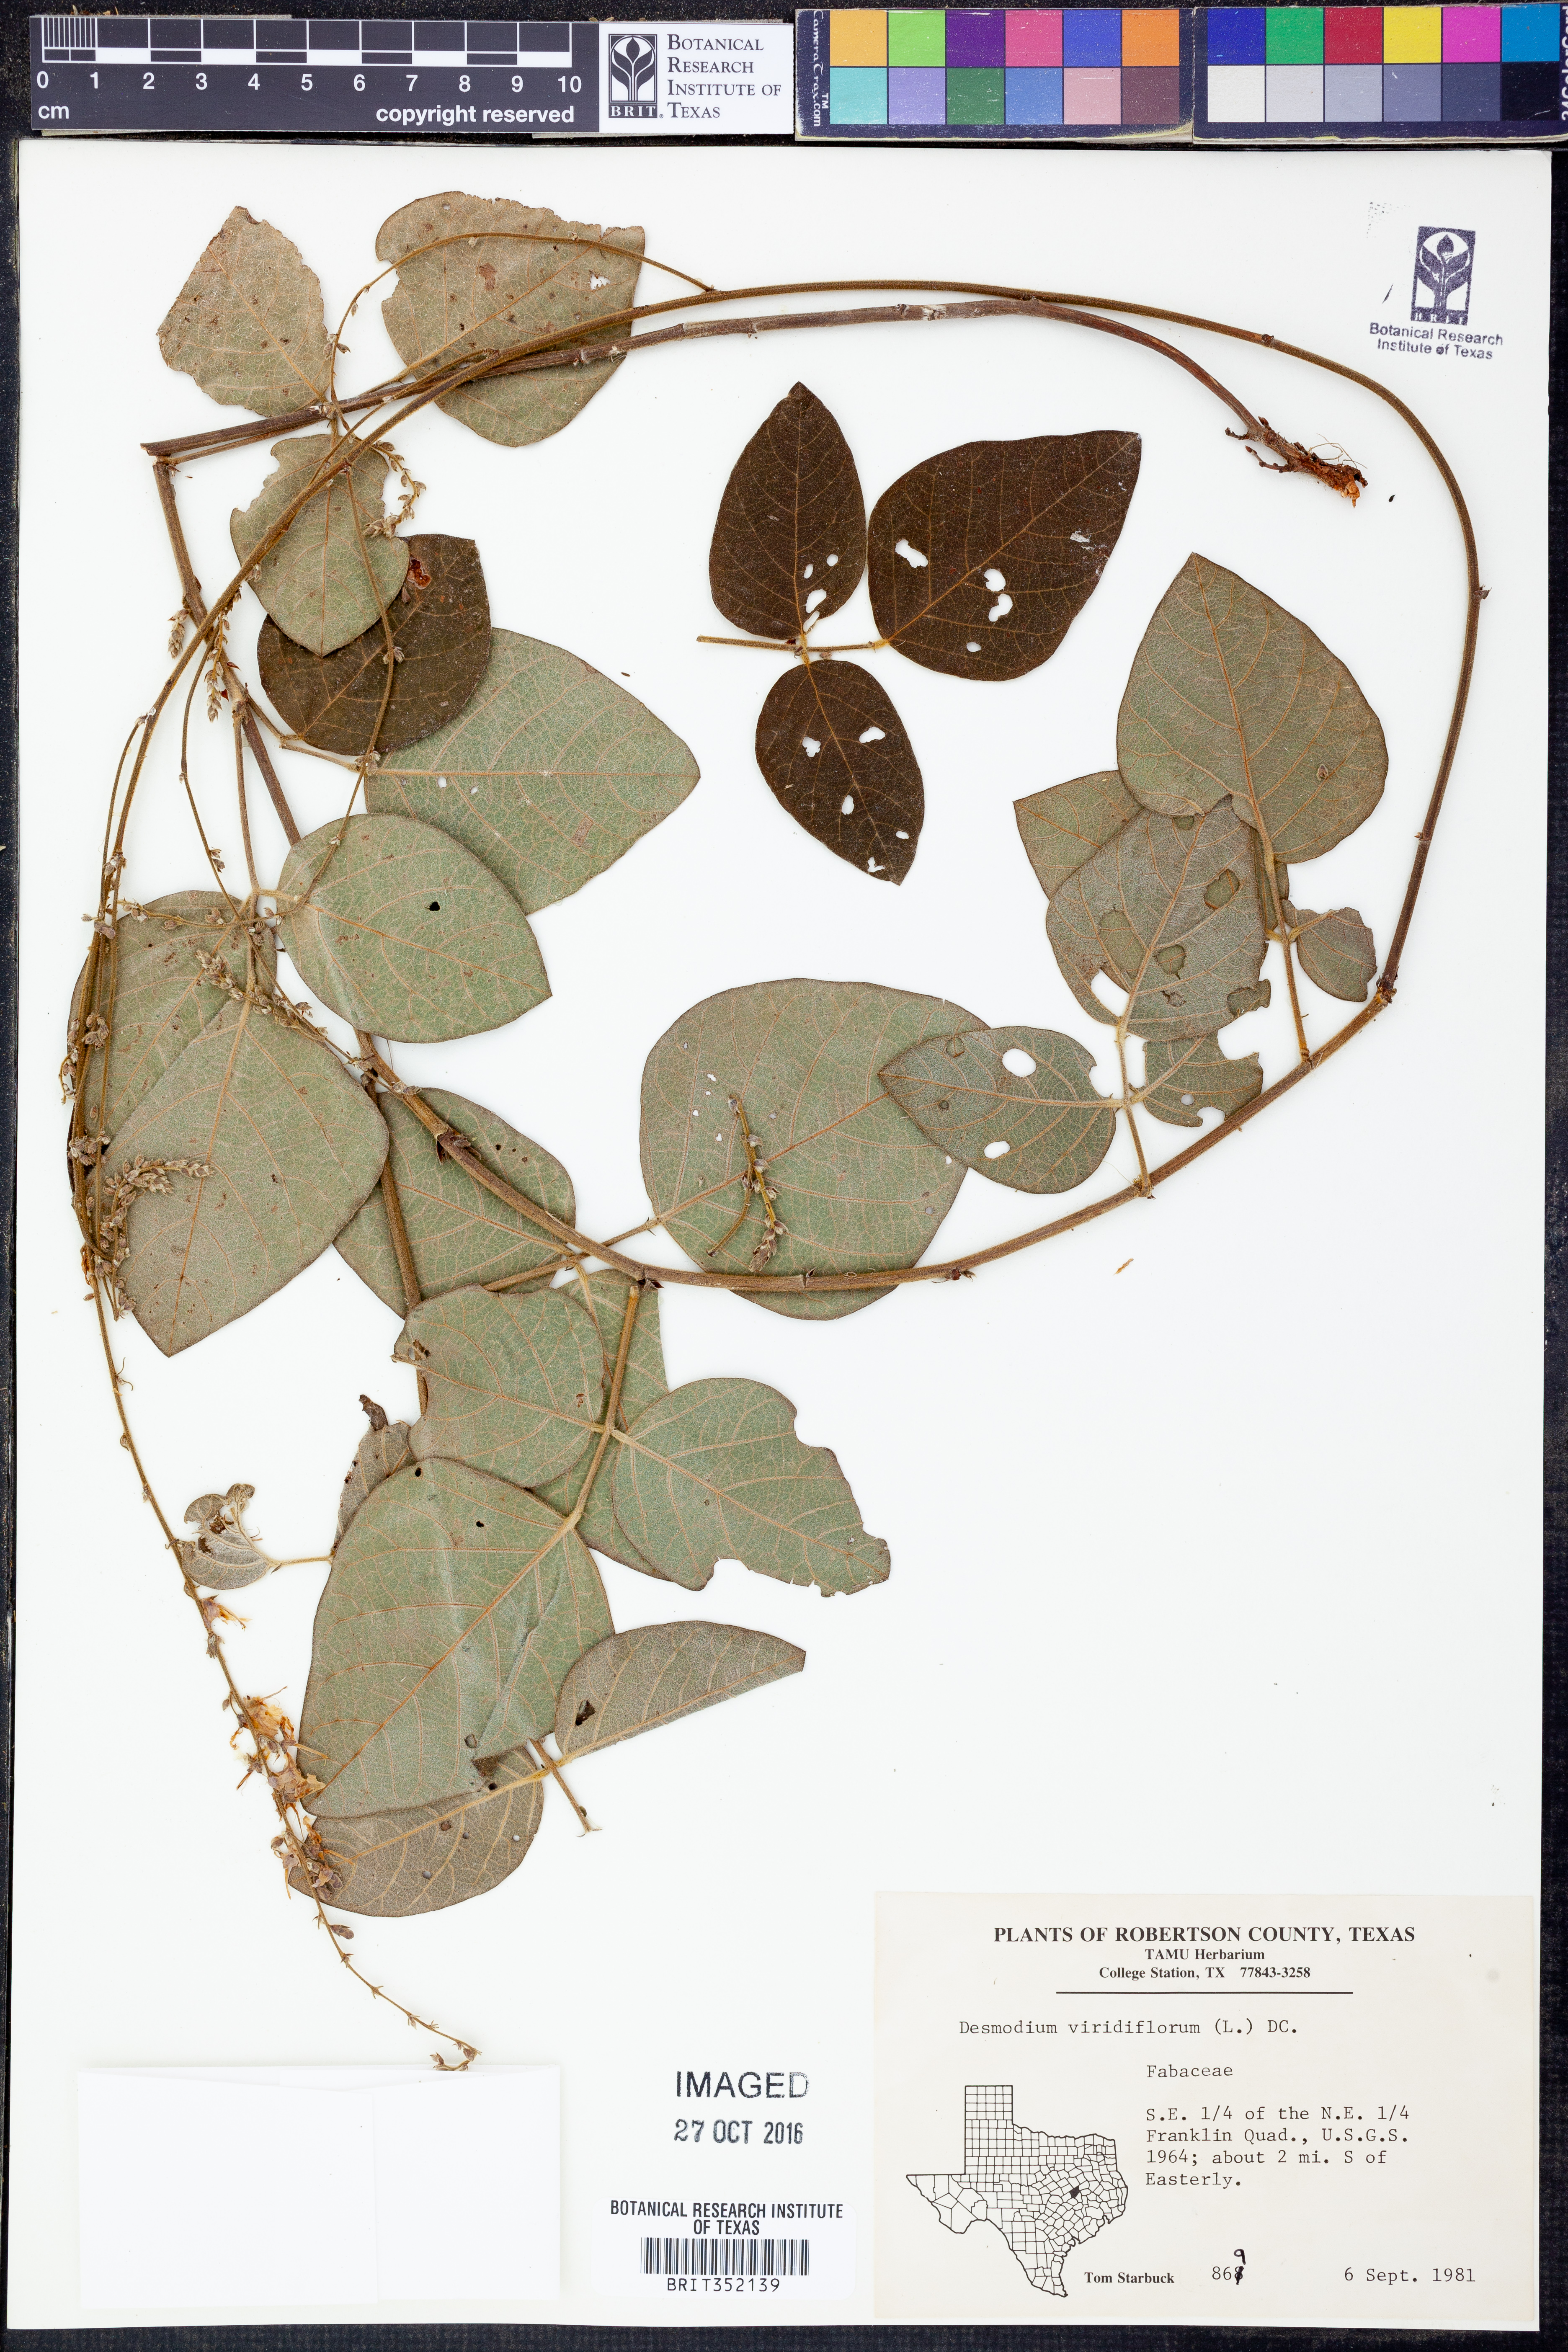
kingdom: Plantae
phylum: Tracheophyta
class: Magnoliopsida
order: Fabales
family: Fabaceae
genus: Desmodium
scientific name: Desmodium viridiflorum
